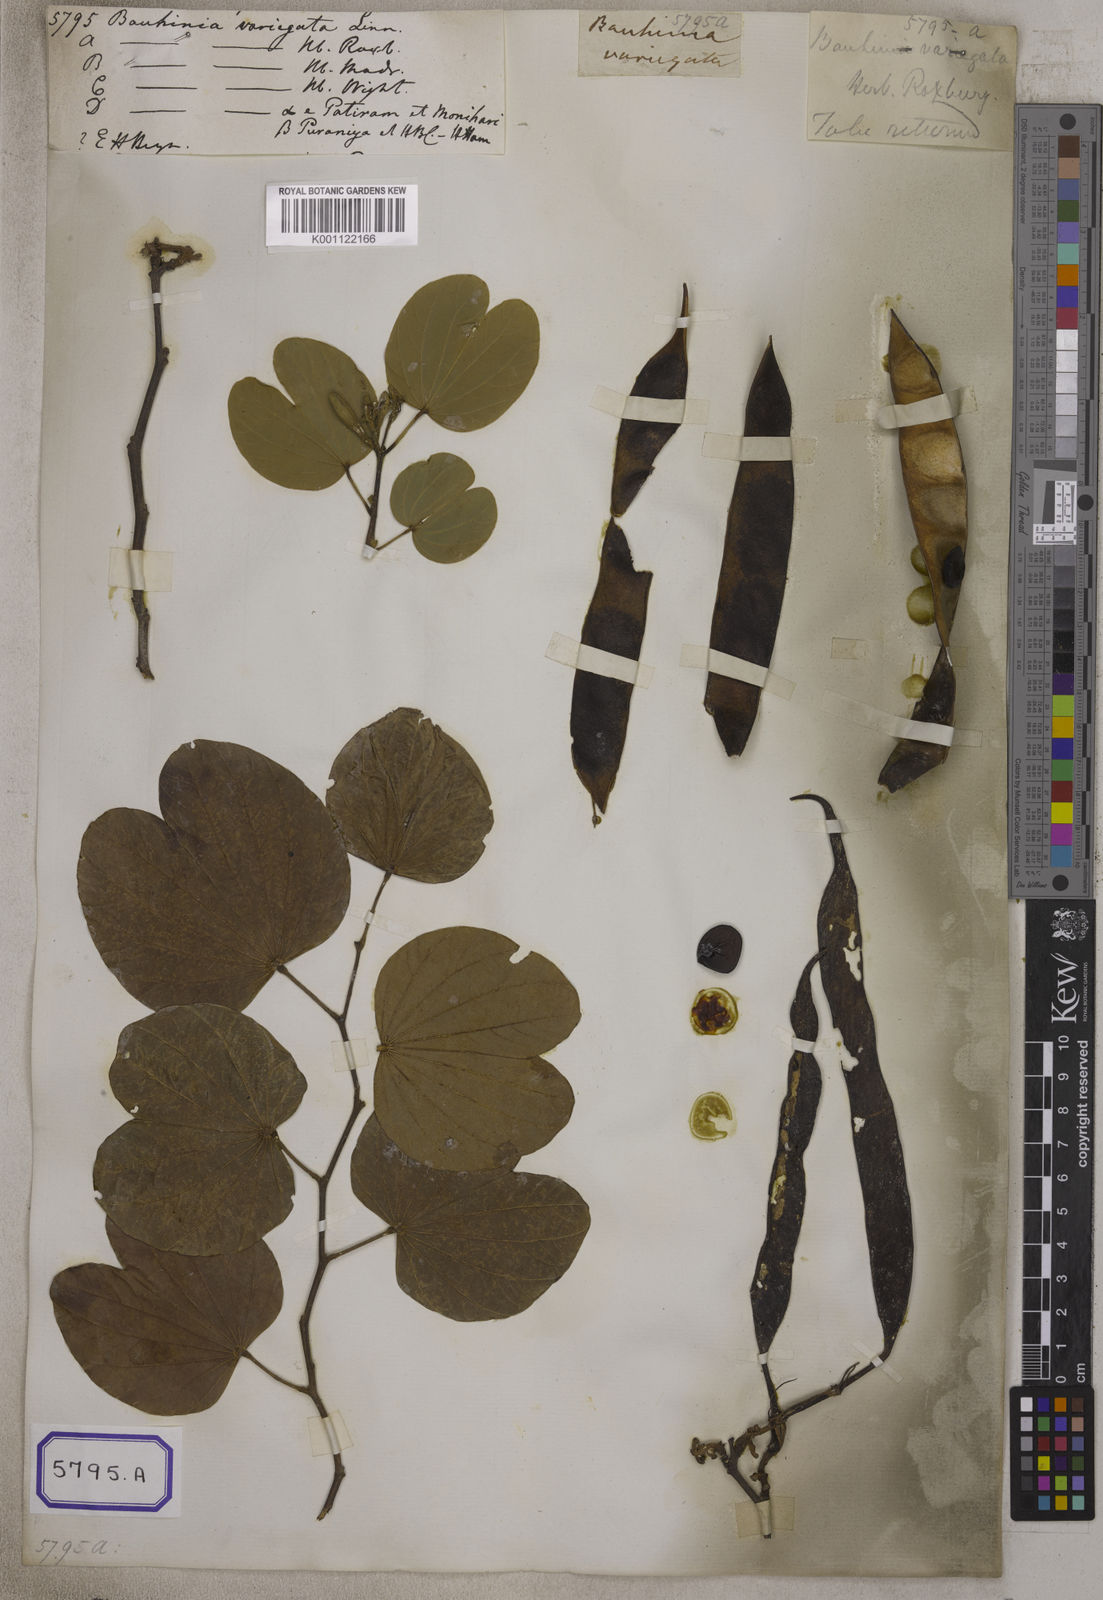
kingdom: Plantae
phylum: Tracheophyta
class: Magnoliopsida
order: Fabales
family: Fabaceae
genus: Bauhinia
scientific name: Bauhinia variegata
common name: Mountain ebony
